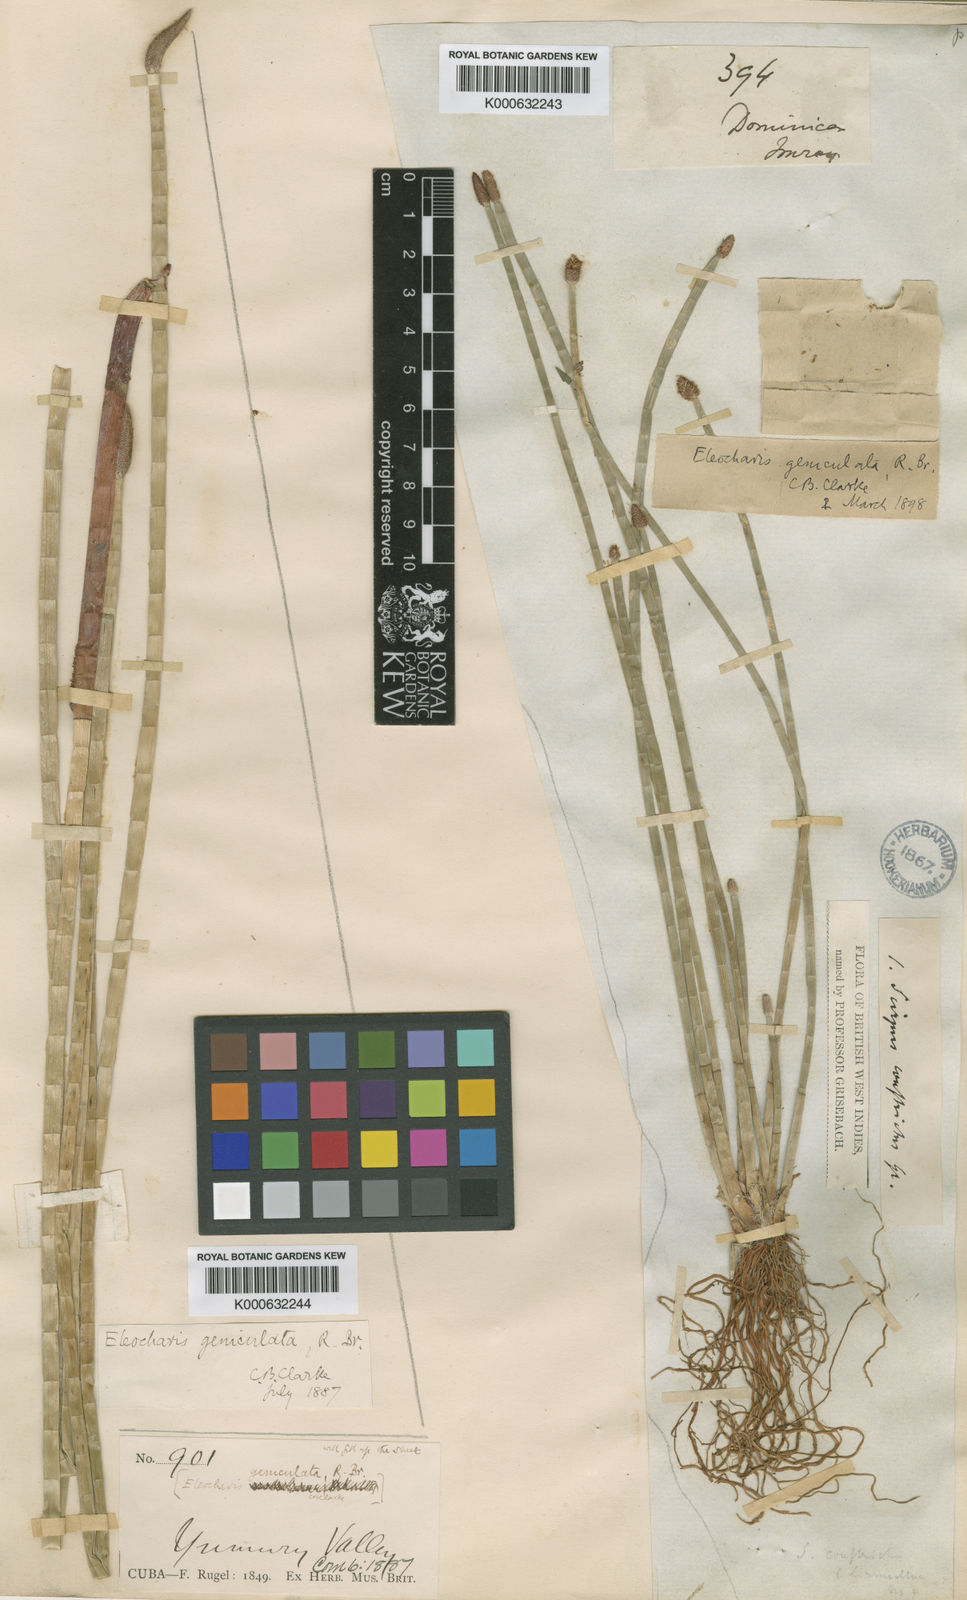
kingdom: Plantae
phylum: Tracheophyta
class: Liliopsida
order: Poales
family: Cyperaceae
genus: Eleocharis
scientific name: Eleocharis elegans
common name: Elegant spike-rush
